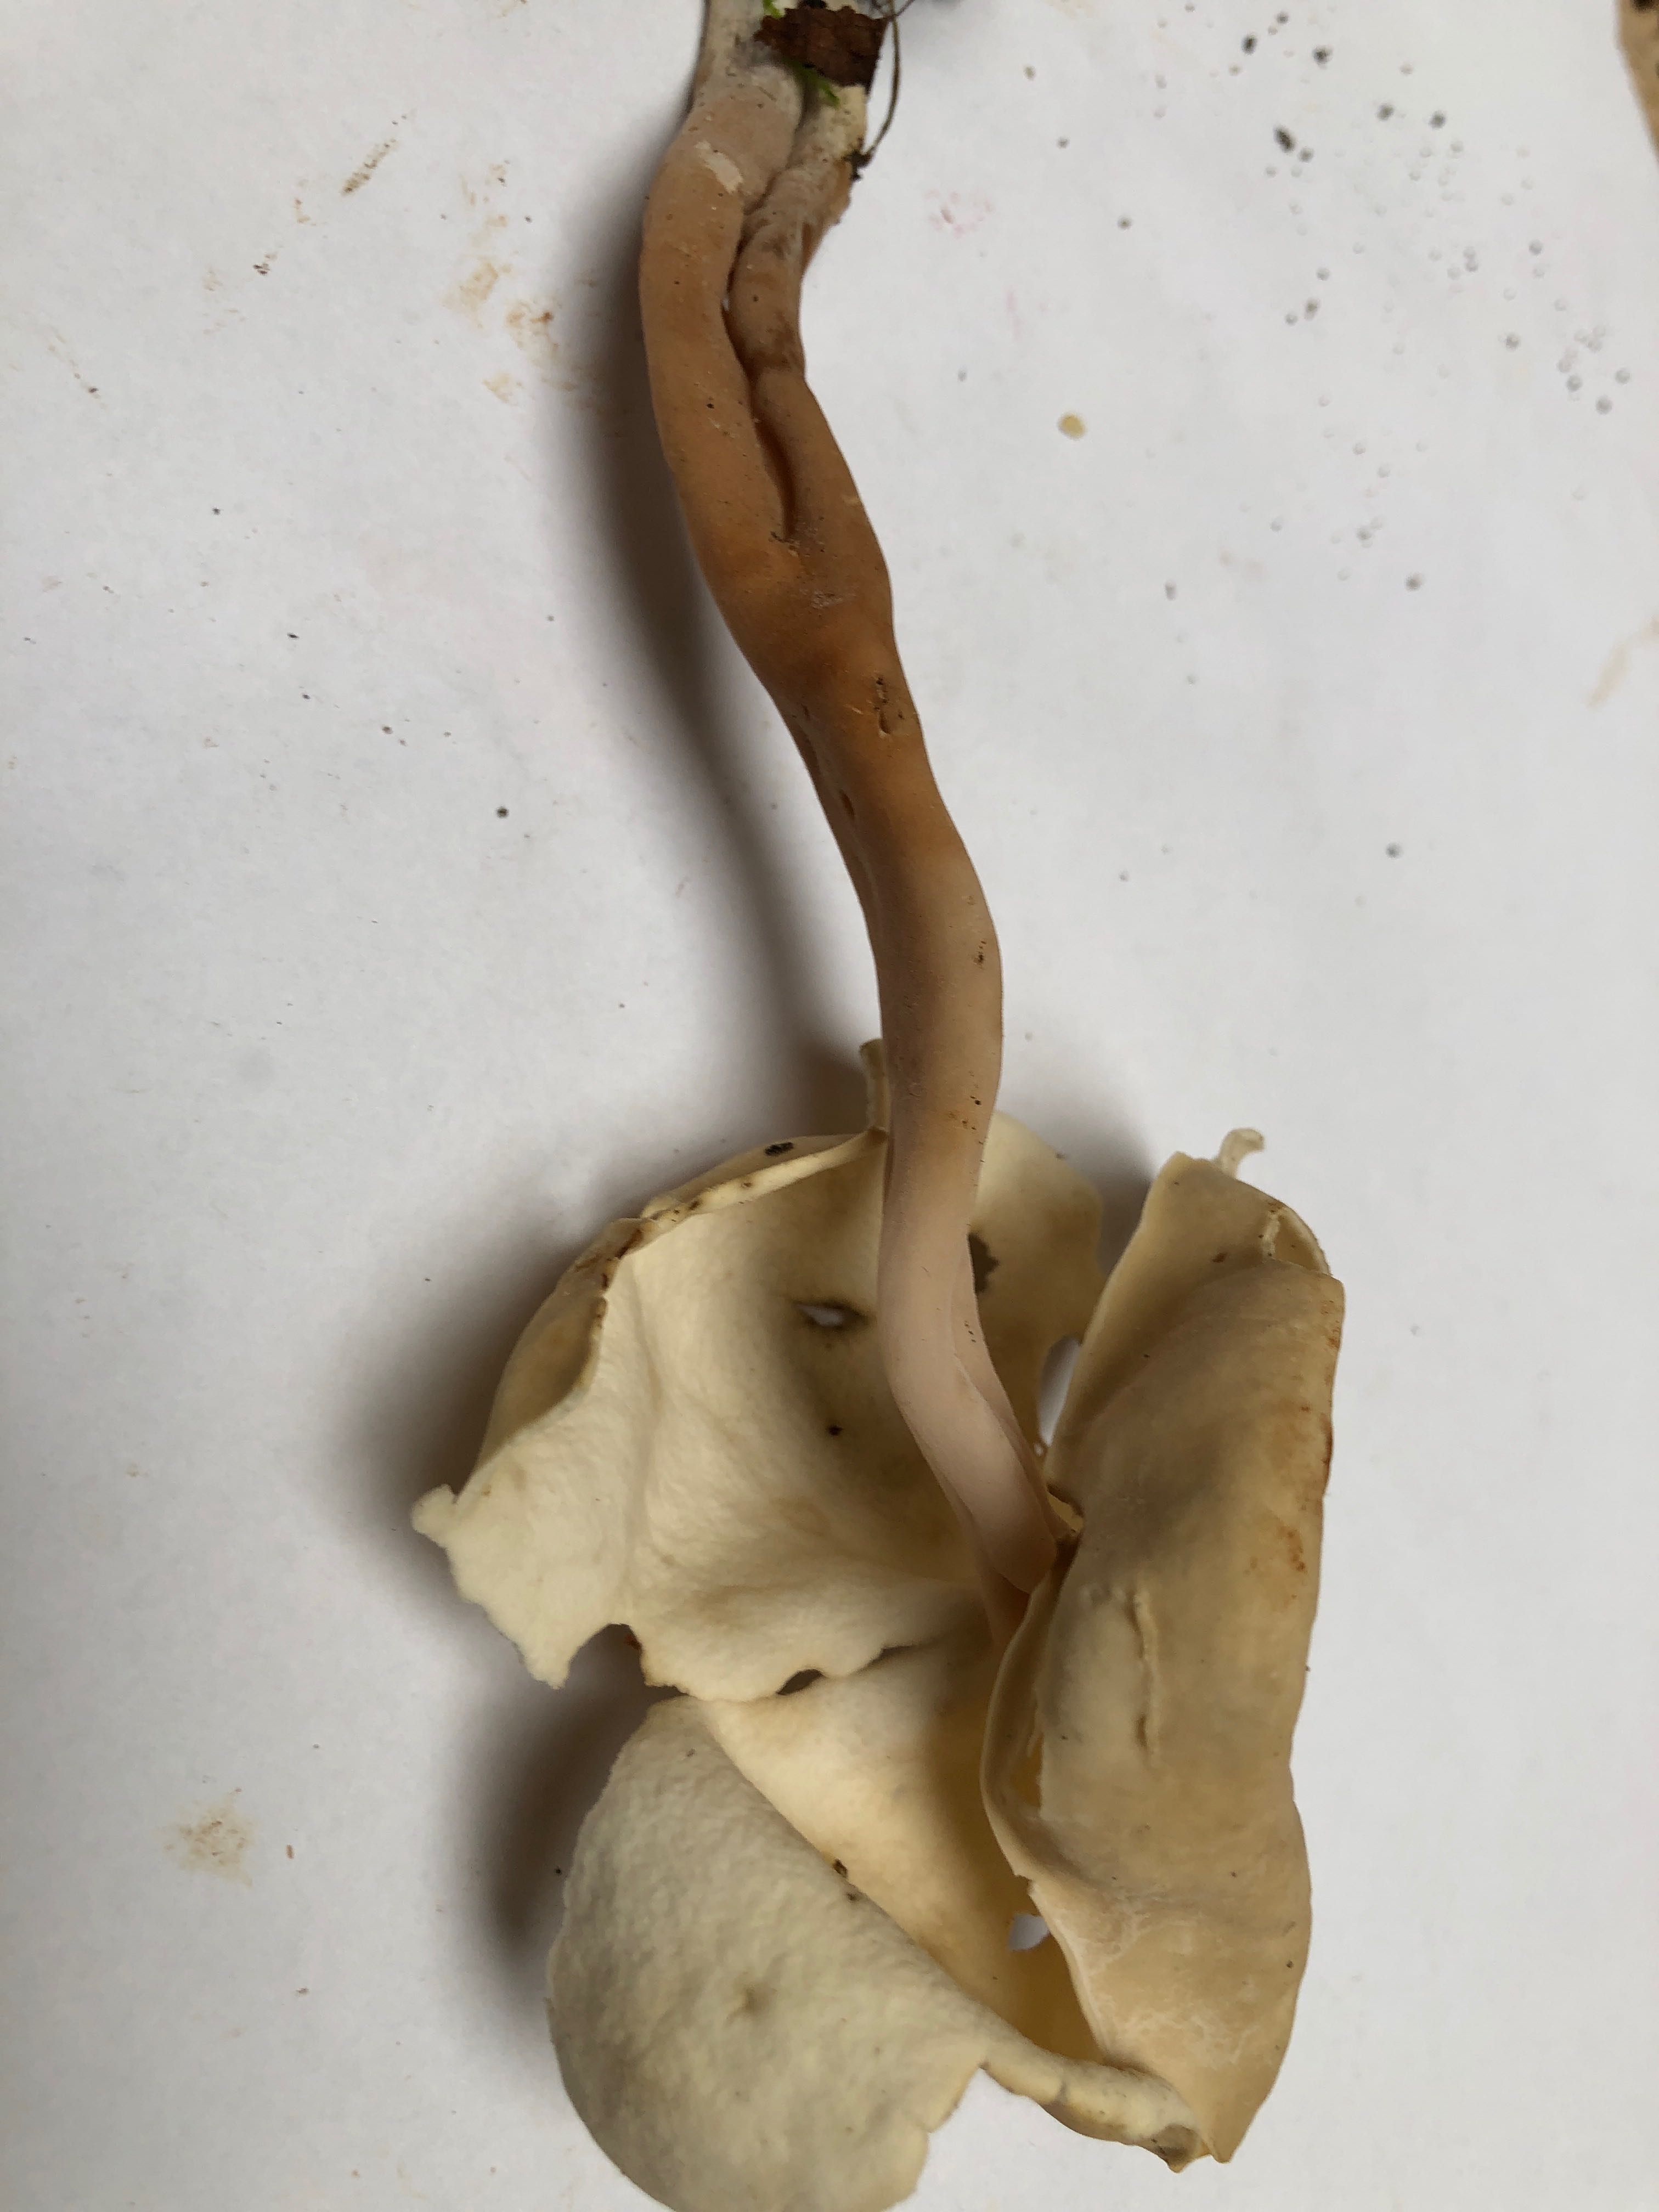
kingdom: Fungi
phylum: Ascomycota
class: Pezizomycetes
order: Pezizales
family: Helvellaceae
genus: Helvella
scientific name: Helvella elastica
